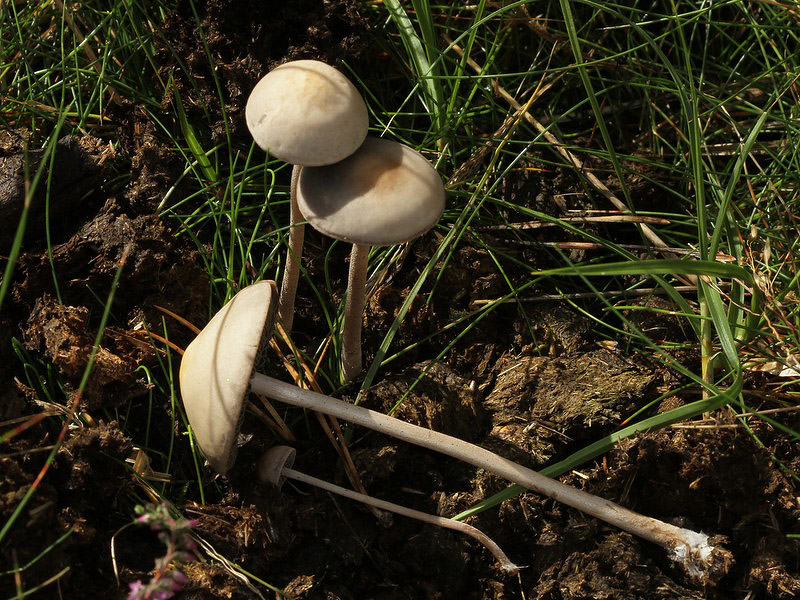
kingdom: Fungi
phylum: Basidiomycota
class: Agaricomycetes
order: Agaricales
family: Bolbitiaceae
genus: Panaeolus
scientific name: Panaeolus subfirmus
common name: fælled-glanshat
